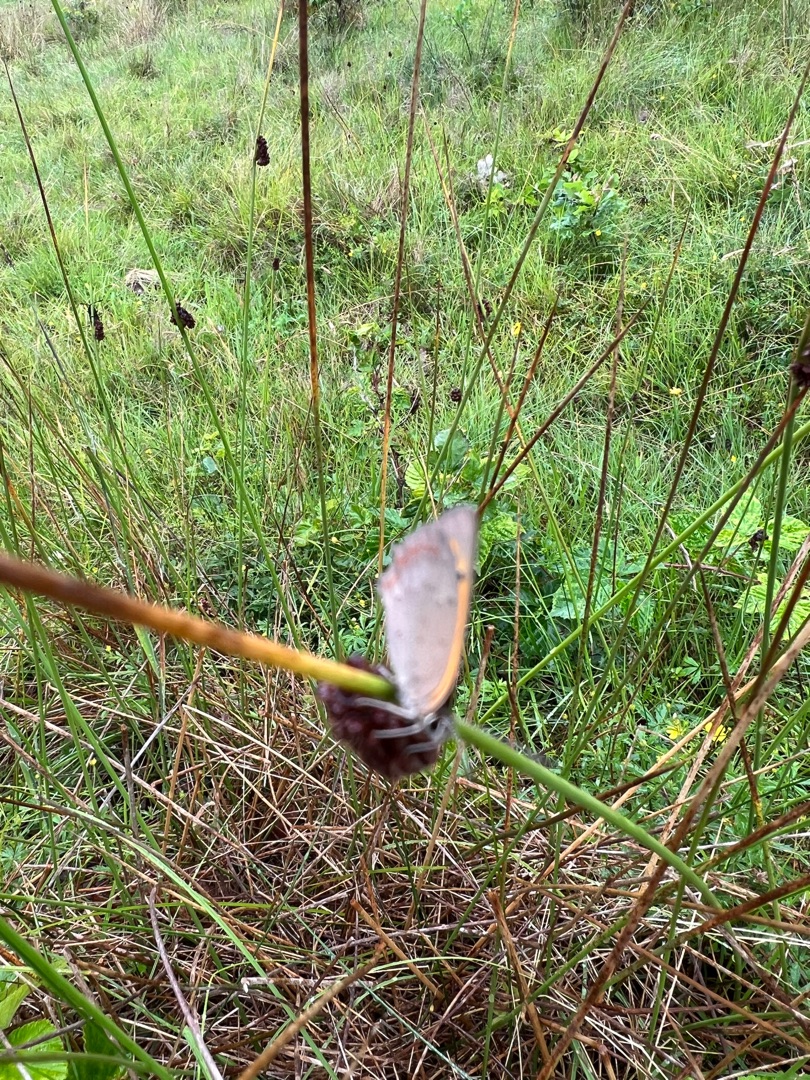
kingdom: Animalia
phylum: Arthropoda
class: Insecta
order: Lepidoptera
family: Lycaenidae
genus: Lycaena
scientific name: Lycaena phlaeas
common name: Lille ildfugl
